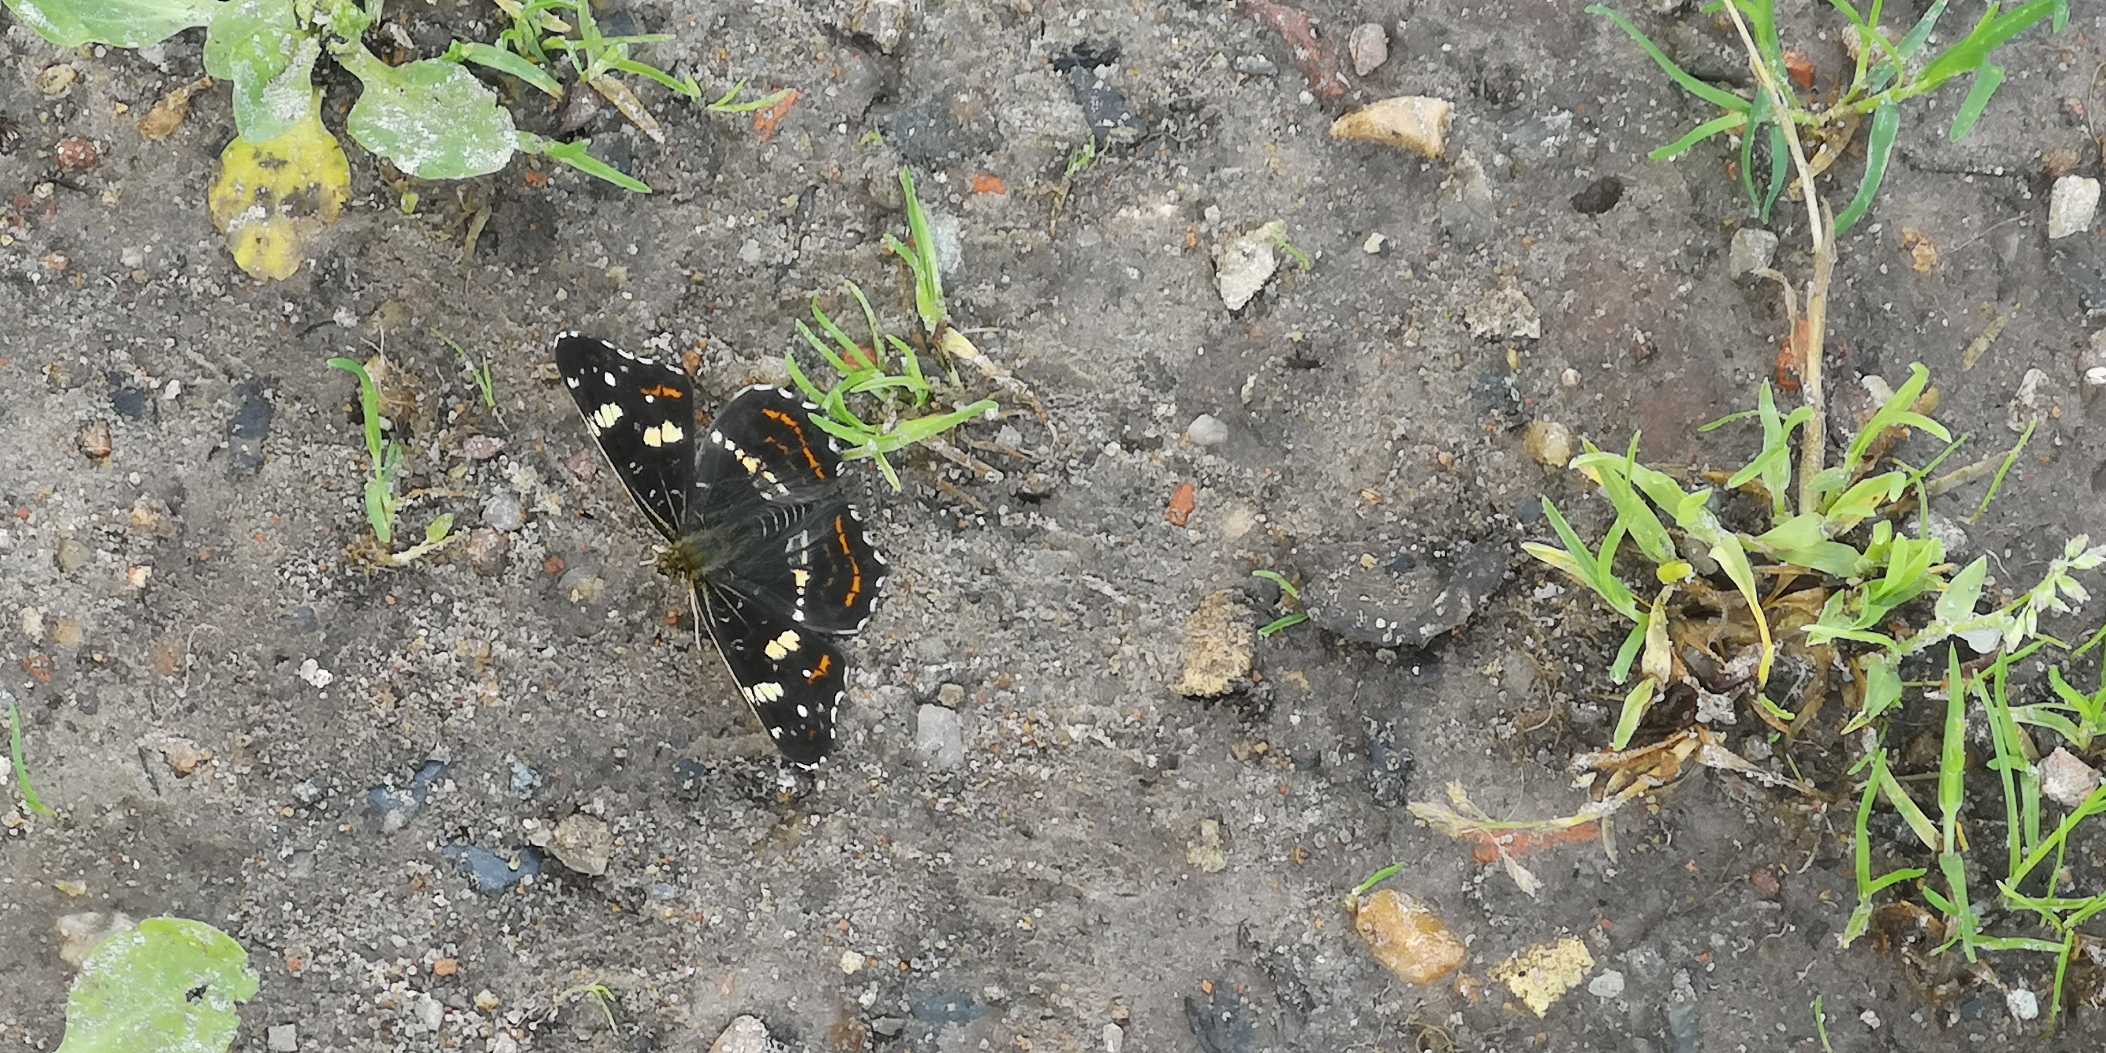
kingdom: Animalia
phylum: Arthropoda
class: Insecta
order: Lepidoptera
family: Nymphalidae
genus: Araschnia
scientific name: Araschnia levana
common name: Nældesommerfugl
